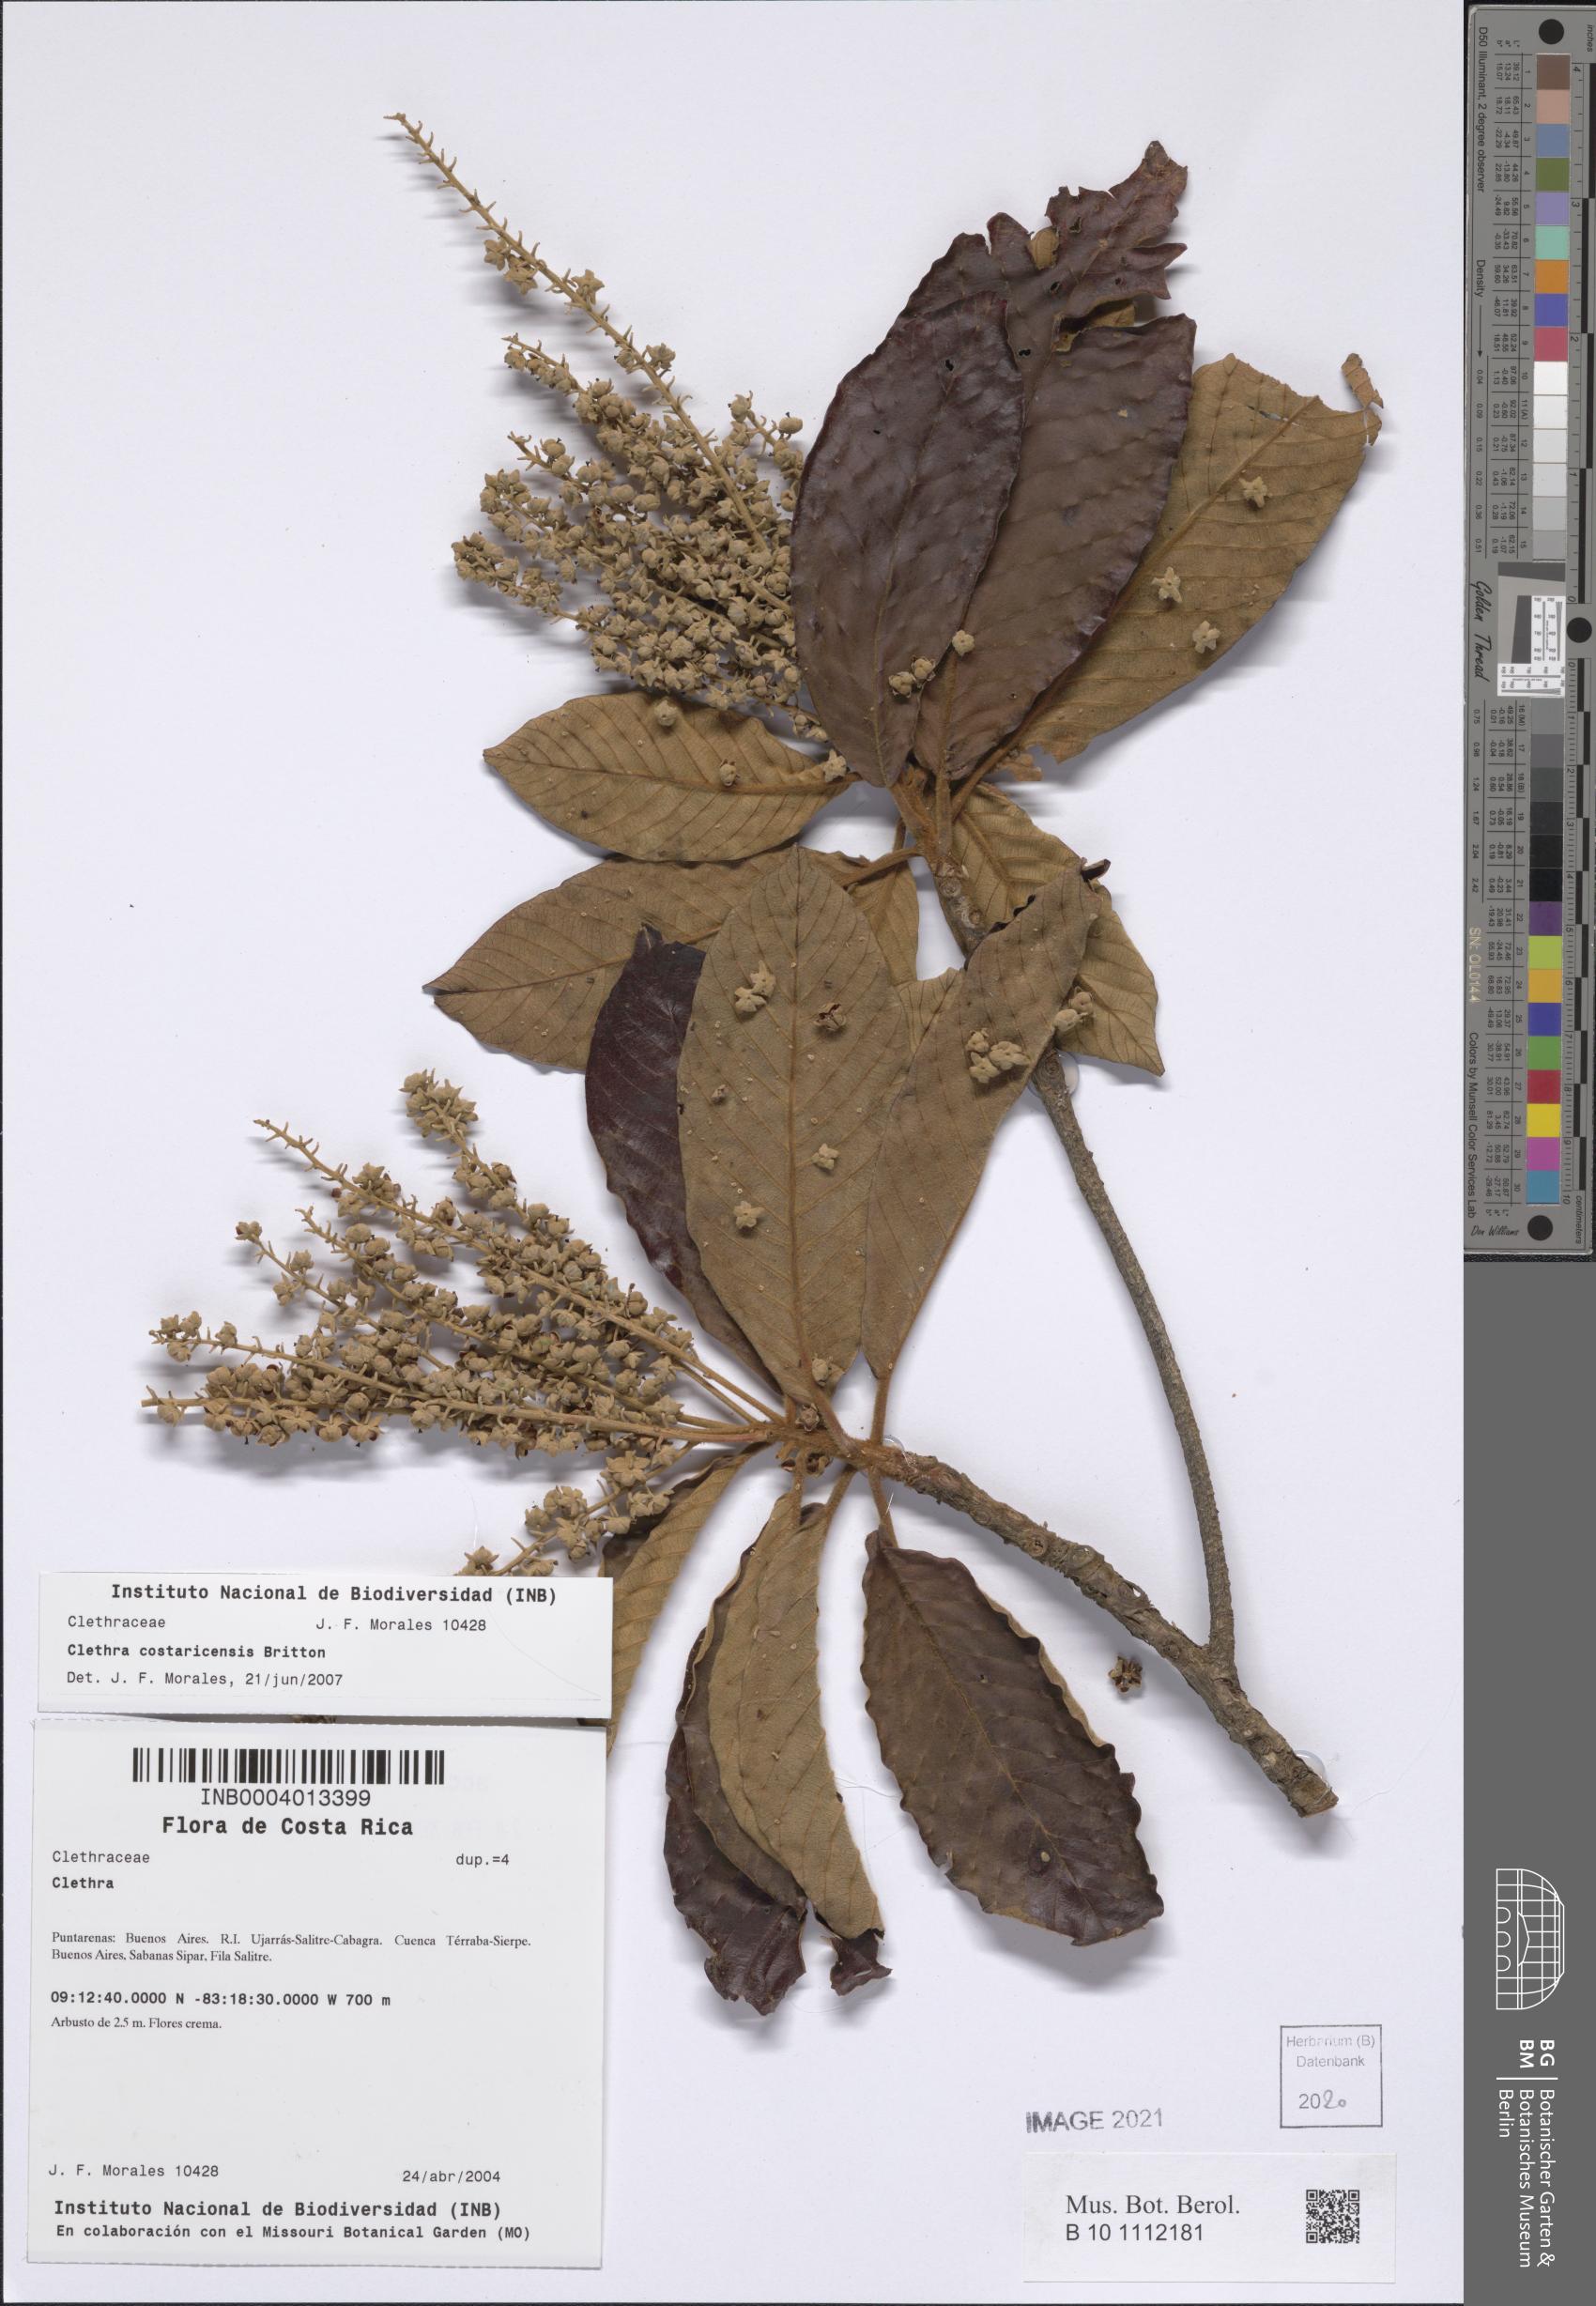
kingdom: Plantae
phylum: Tracheophyta
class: Magnoliopsida
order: Ericales
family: Clethraceae
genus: Clethra
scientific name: Clethra costaricensis
